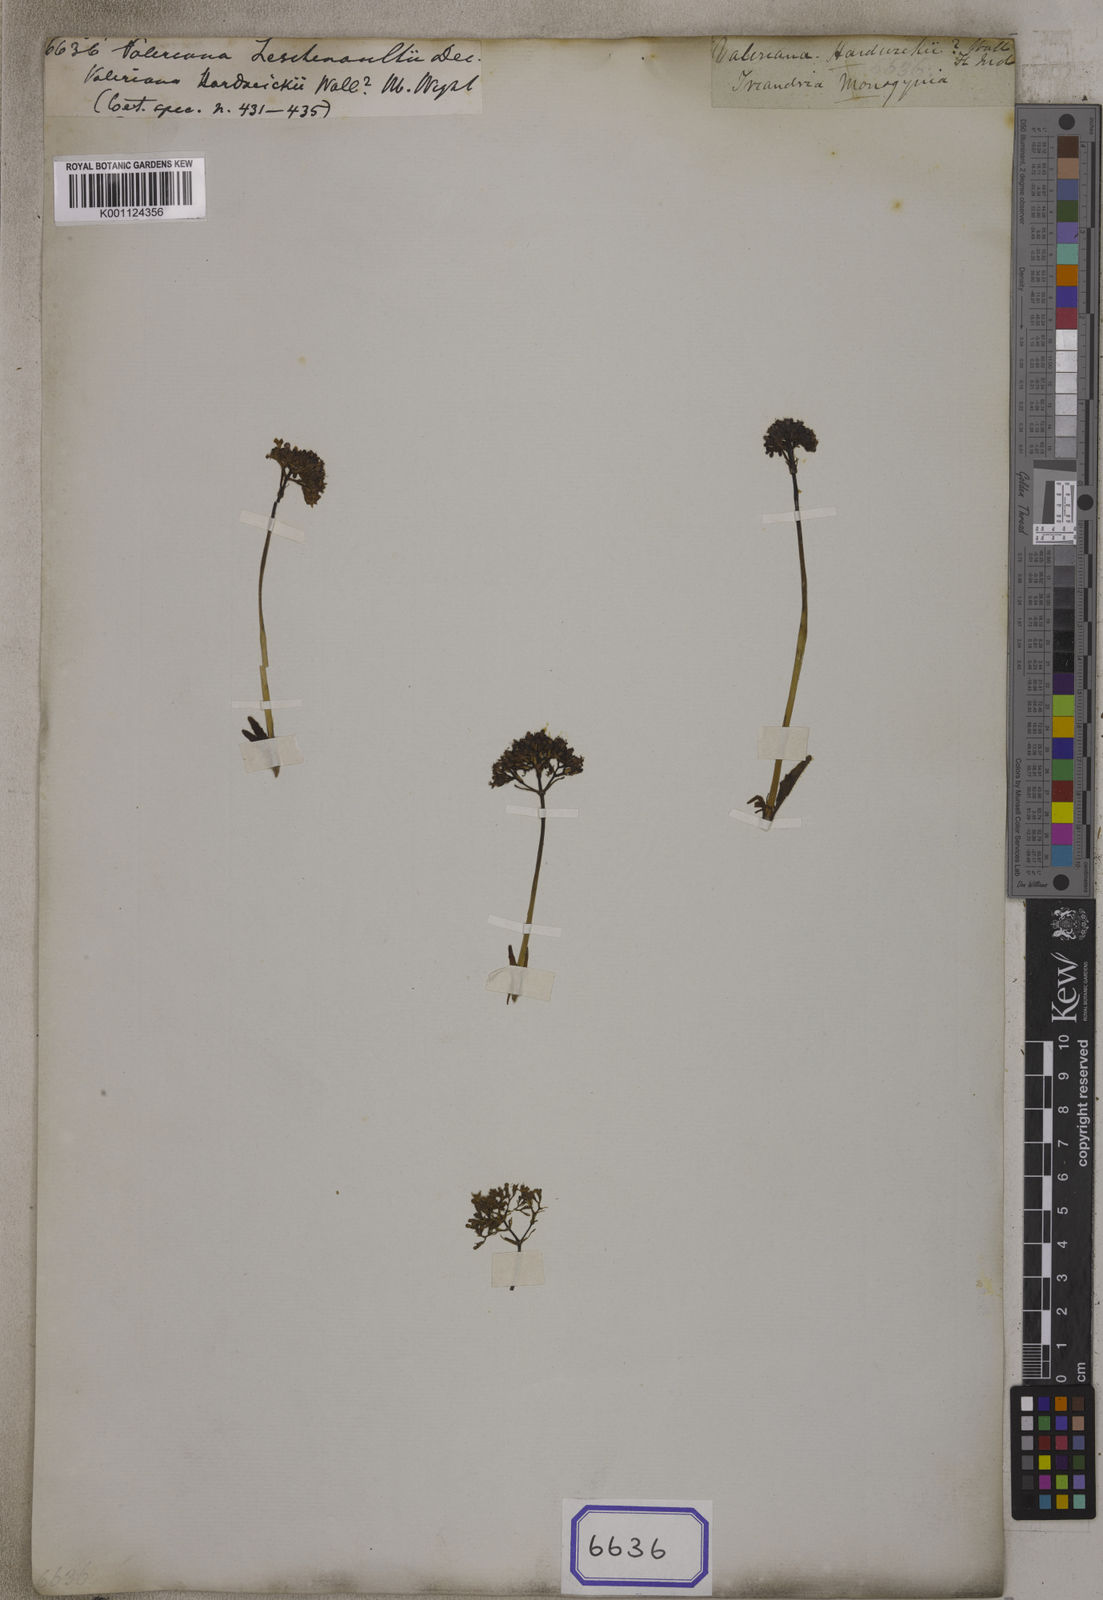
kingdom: Plantae
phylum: Tracheophyta
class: Magnoliopsida
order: Dipsacales
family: Caprifoliaceae
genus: Valeriana
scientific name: Valeriana leschenaultii
